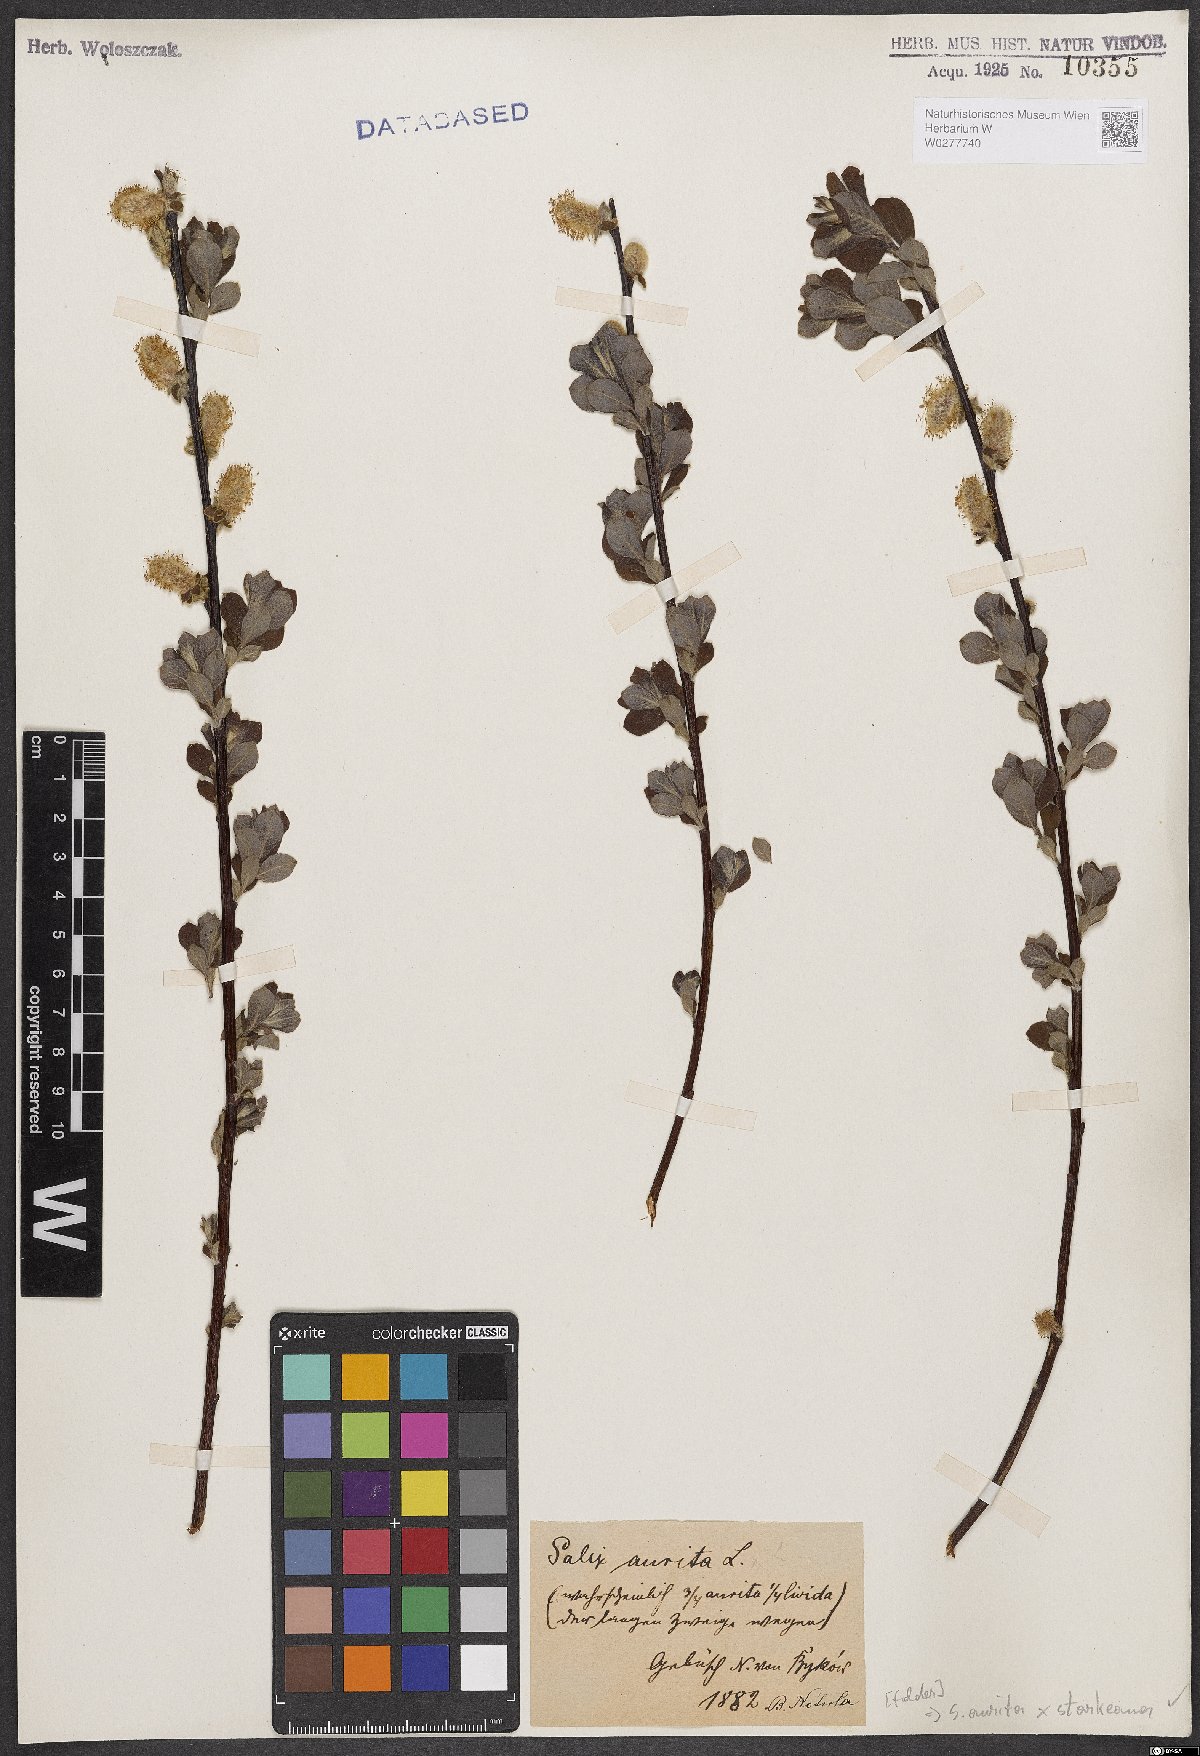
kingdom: Plantae
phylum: Tracheophyta
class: Magnoliopsida
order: Malpighiales
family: Salicaceae
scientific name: Salicaceae
